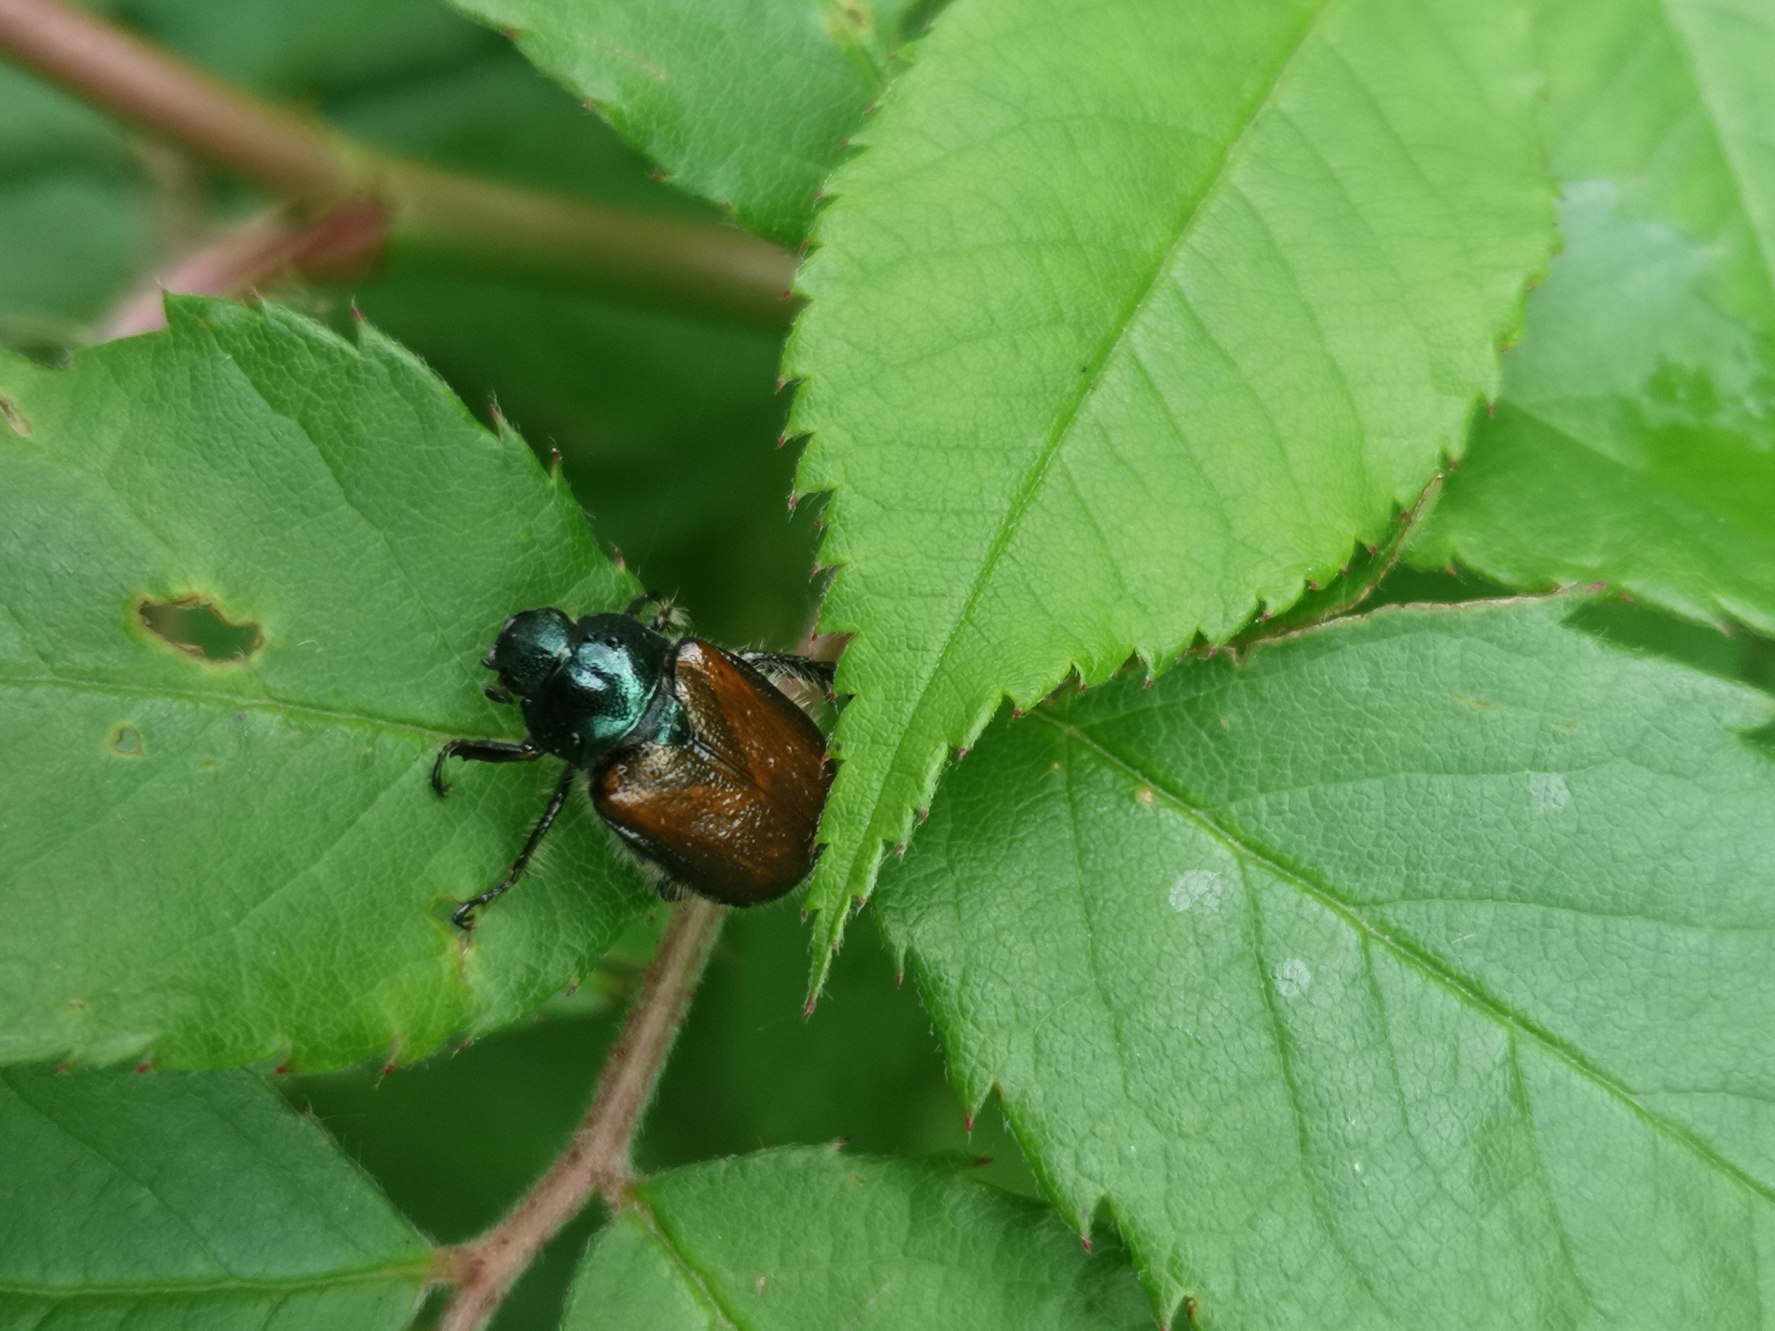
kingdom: Animalia
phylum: Arthropoda
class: Insecta
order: Coleoptera
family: Scarabaeidae
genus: Phyllopertha
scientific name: Phyllopertha horticola
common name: Gåsebille
